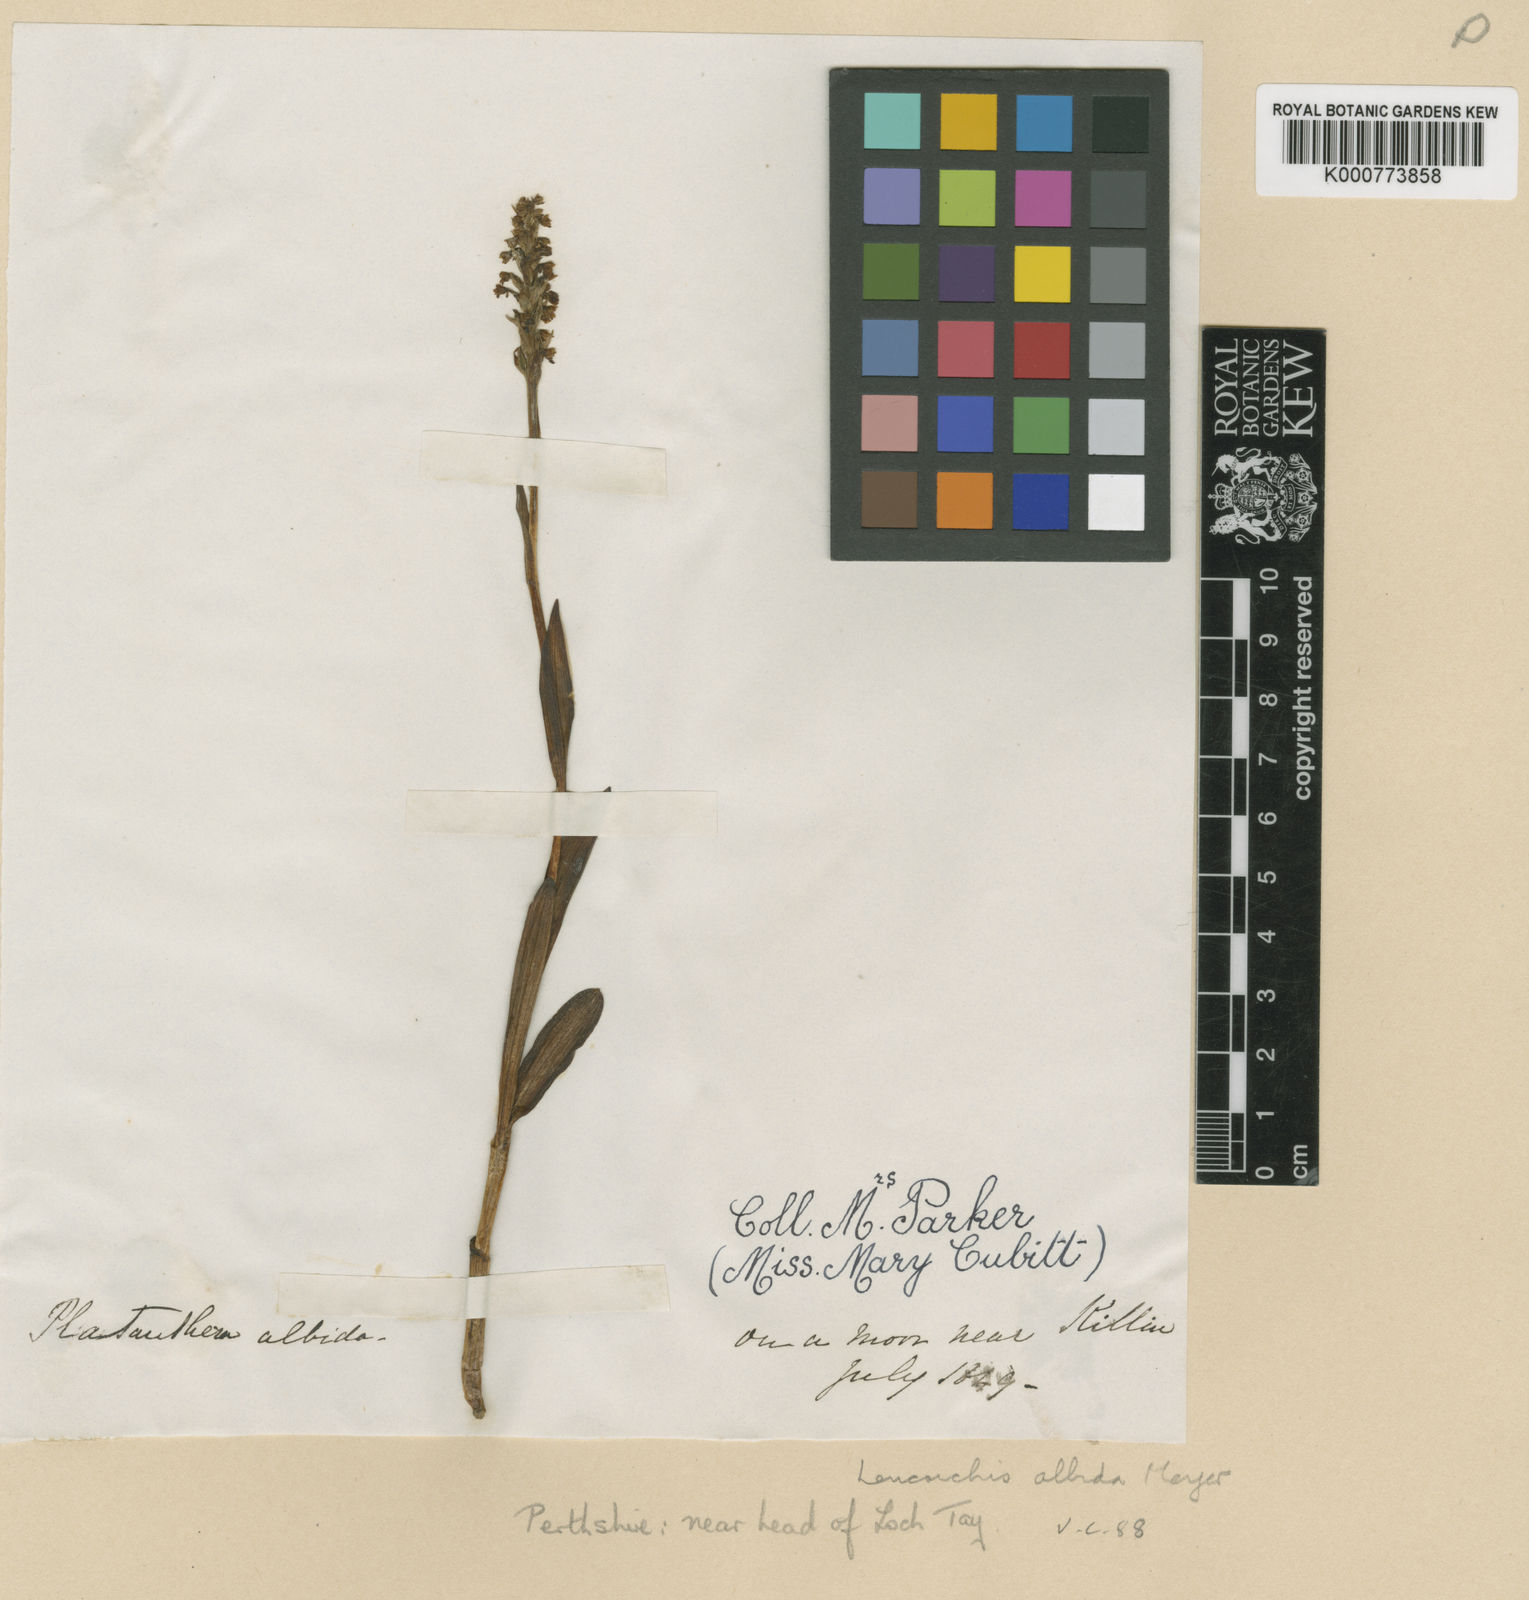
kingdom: Plantae
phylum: Tracheophyta
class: Liliopsida
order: Asparagales
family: Orchidaceae
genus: Pseudorchis
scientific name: Pseudorchis
